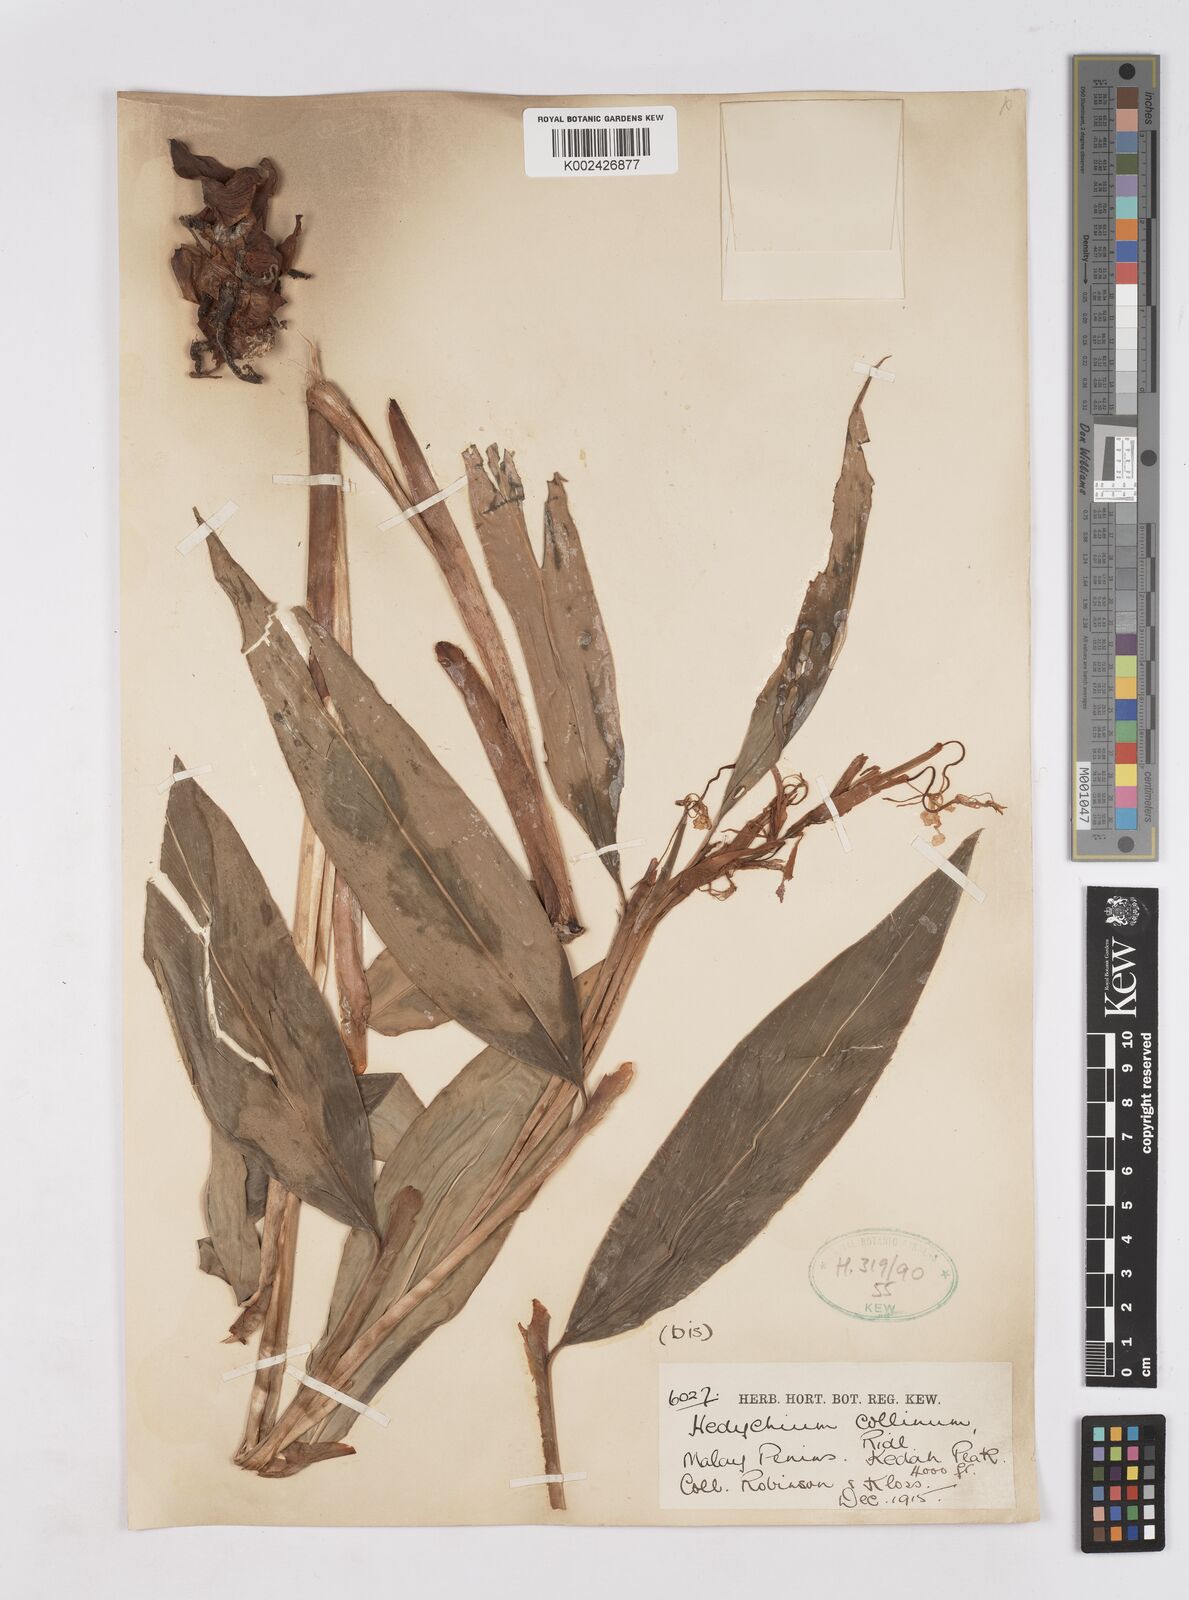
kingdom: Plantae
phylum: Tracheophyta
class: Liliopsida
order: Zingiberales
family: Zingiberaceae
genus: Hedychium
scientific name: Hedychium collinum
